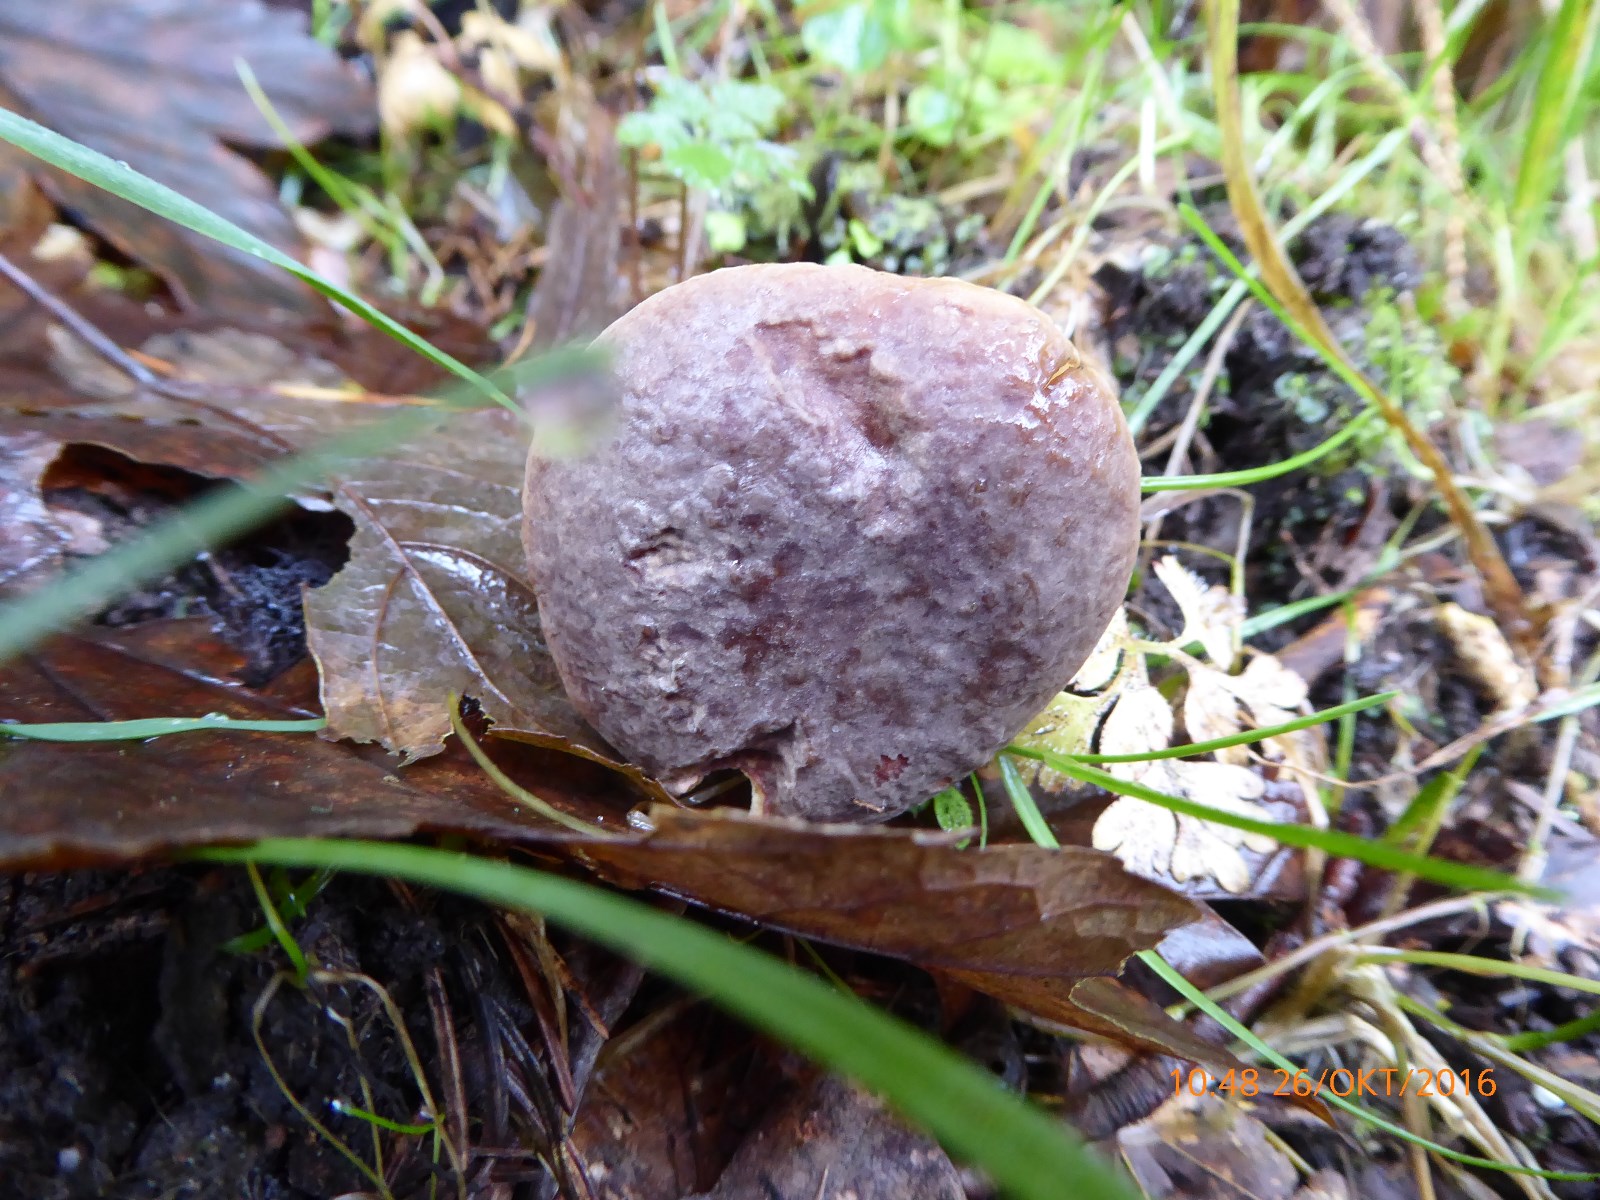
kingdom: Fungi
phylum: Basidiomycota
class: Agaricomycetes
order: Boletales
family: Boletaceae
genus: Xerocomellus
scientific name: Xerocomellus pruinatus
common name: dugget rørhat
